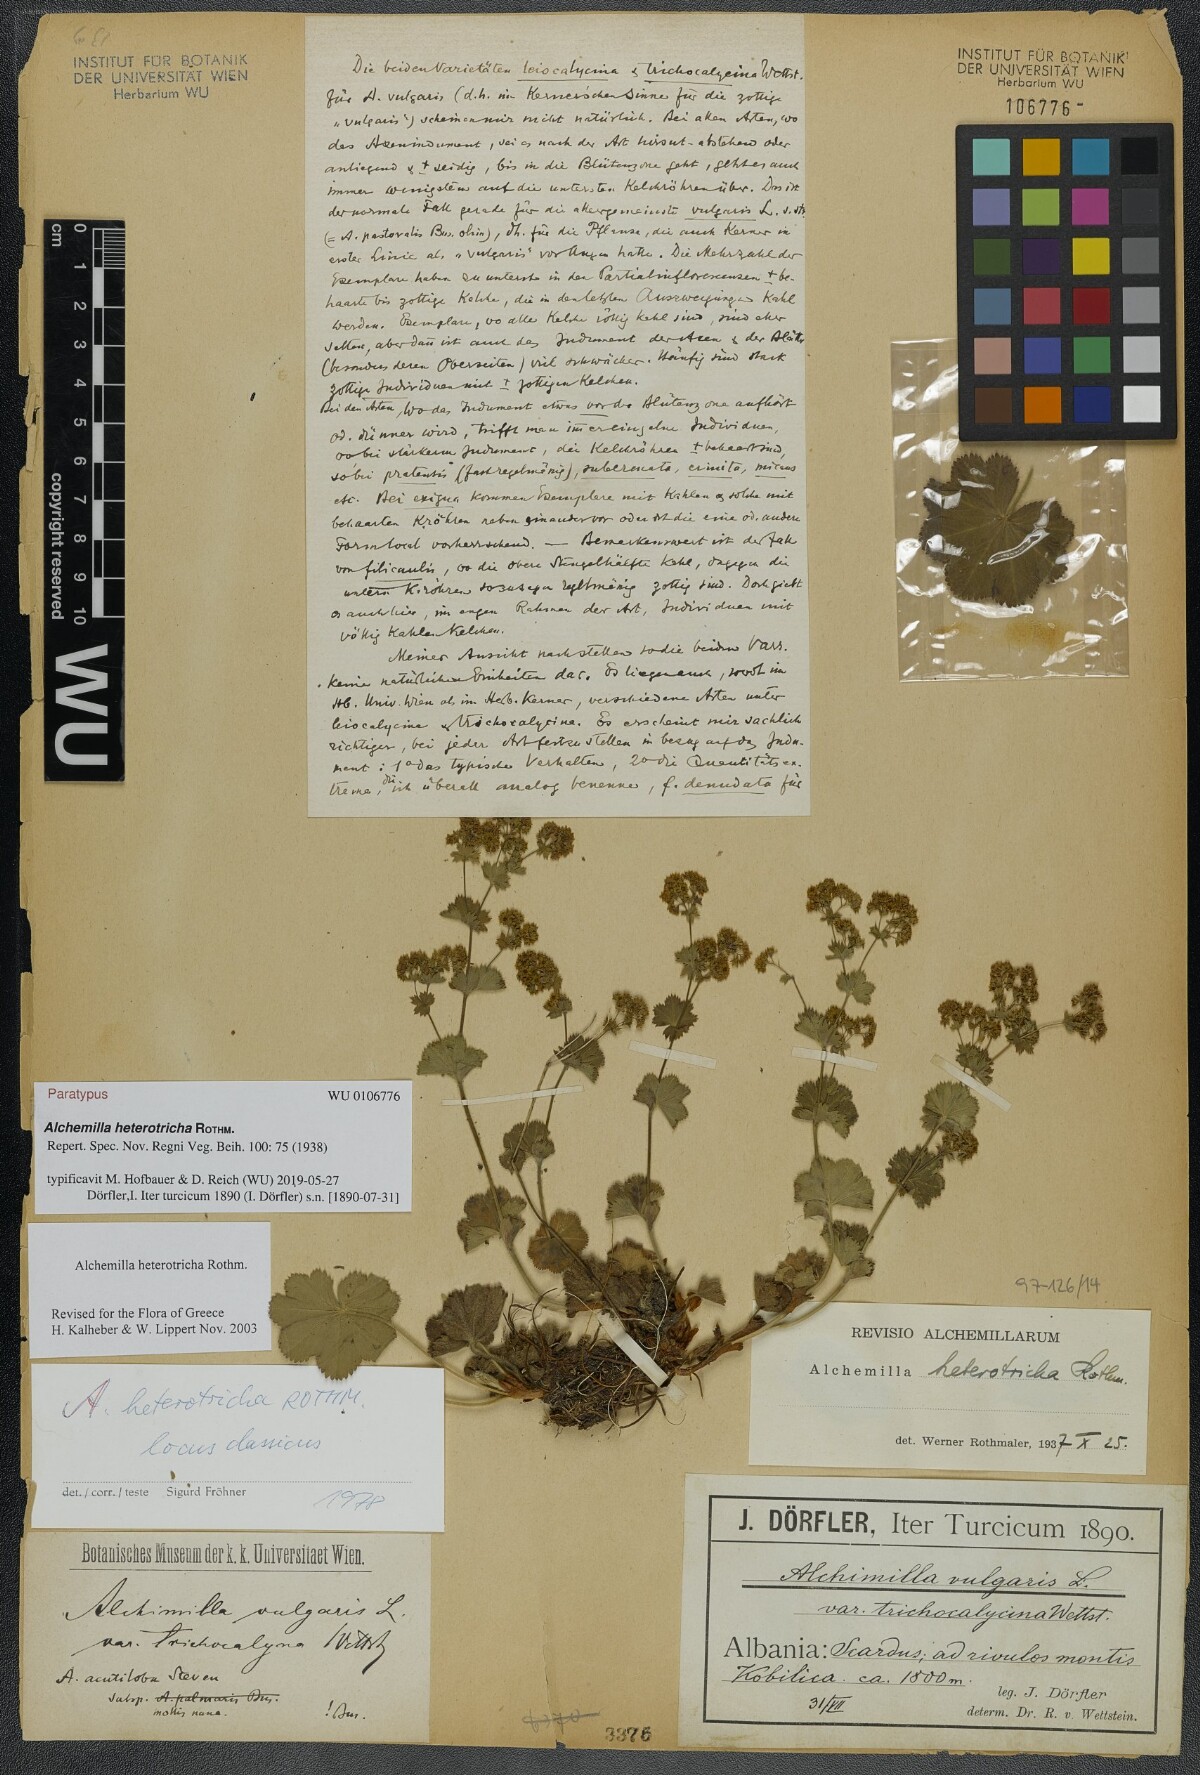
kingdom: Plantae
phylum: Tracheophyta
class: Magnoliopsida
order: Rosales
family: Rosaceae
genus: Alchemilla
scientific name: Alchemilla heterotricha
